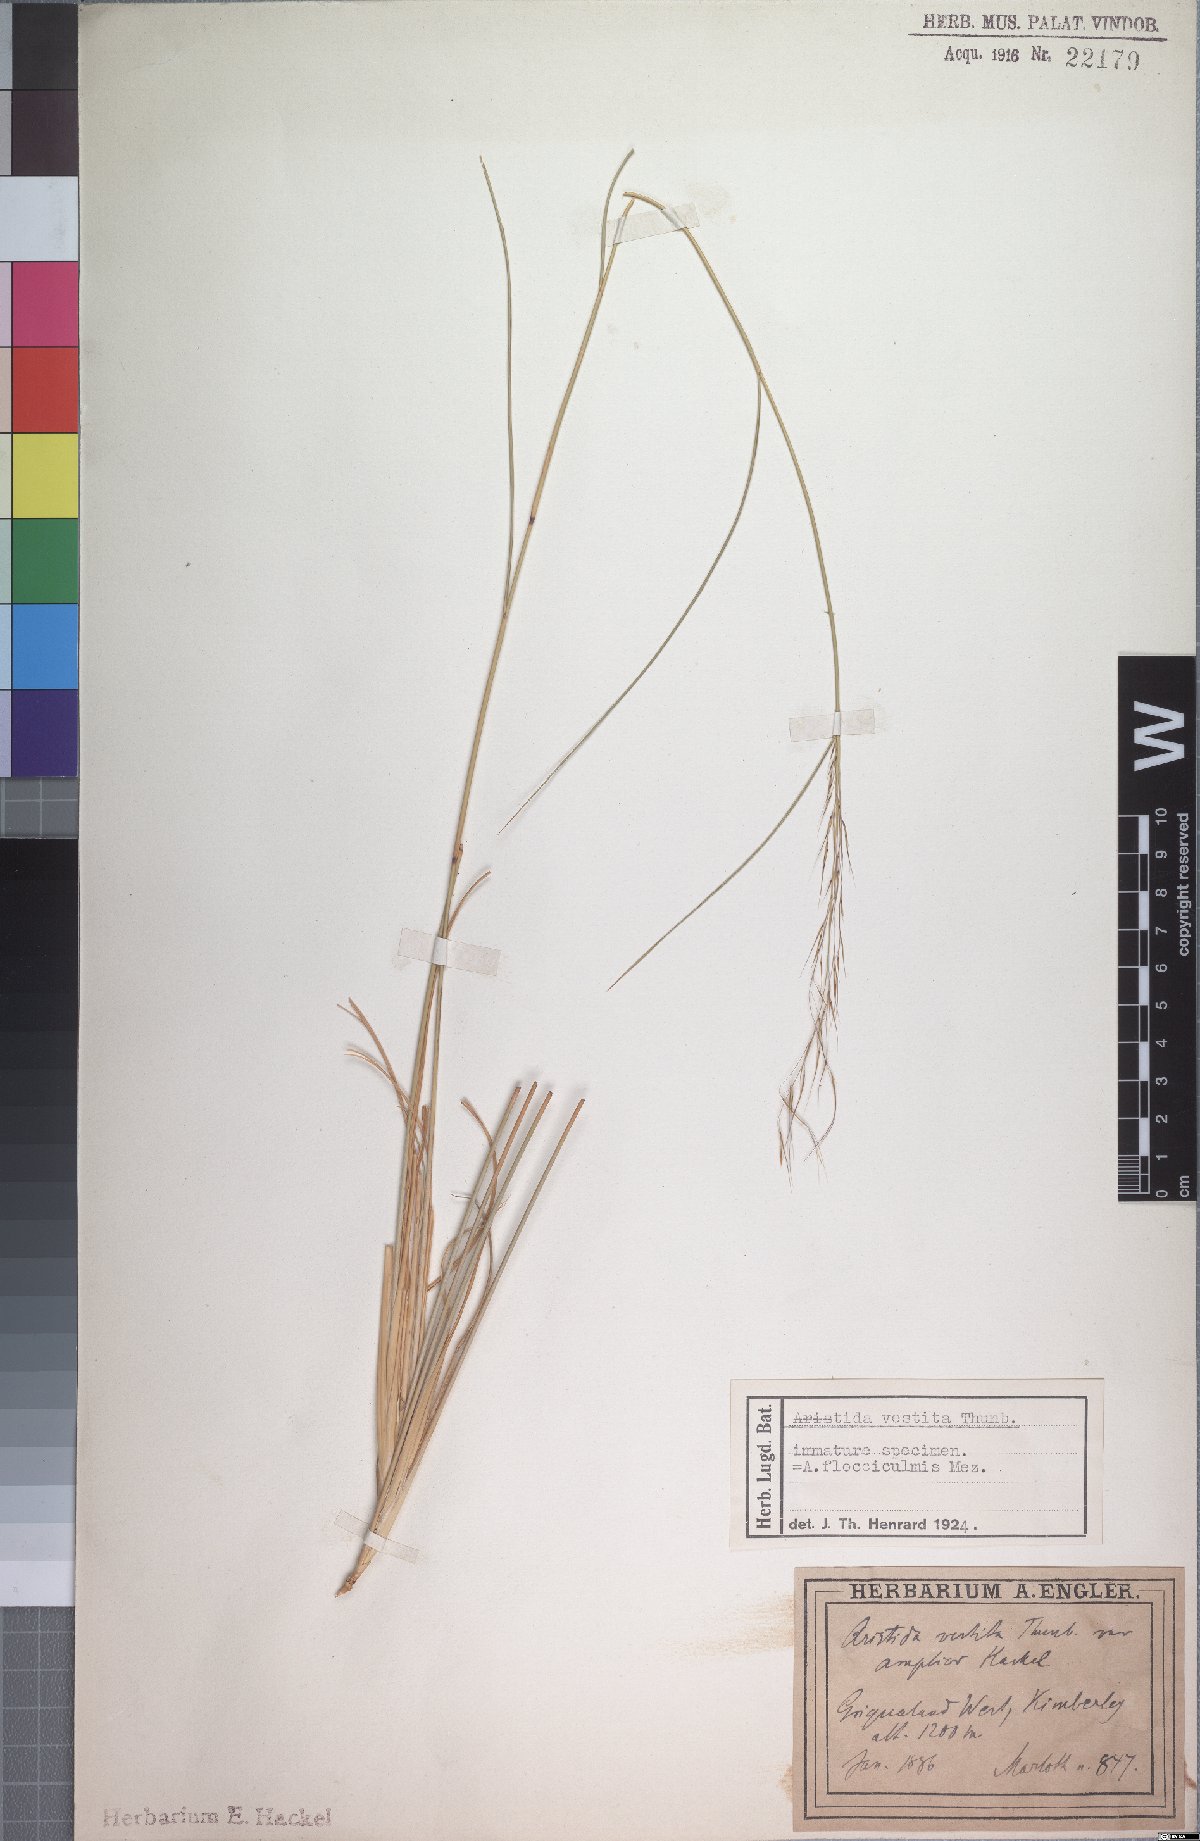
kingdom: Plantae
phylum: Tracheophyta
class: Liliopsida
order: Poales
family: Poaceae
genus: Aristida
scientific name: Aristida vestita
